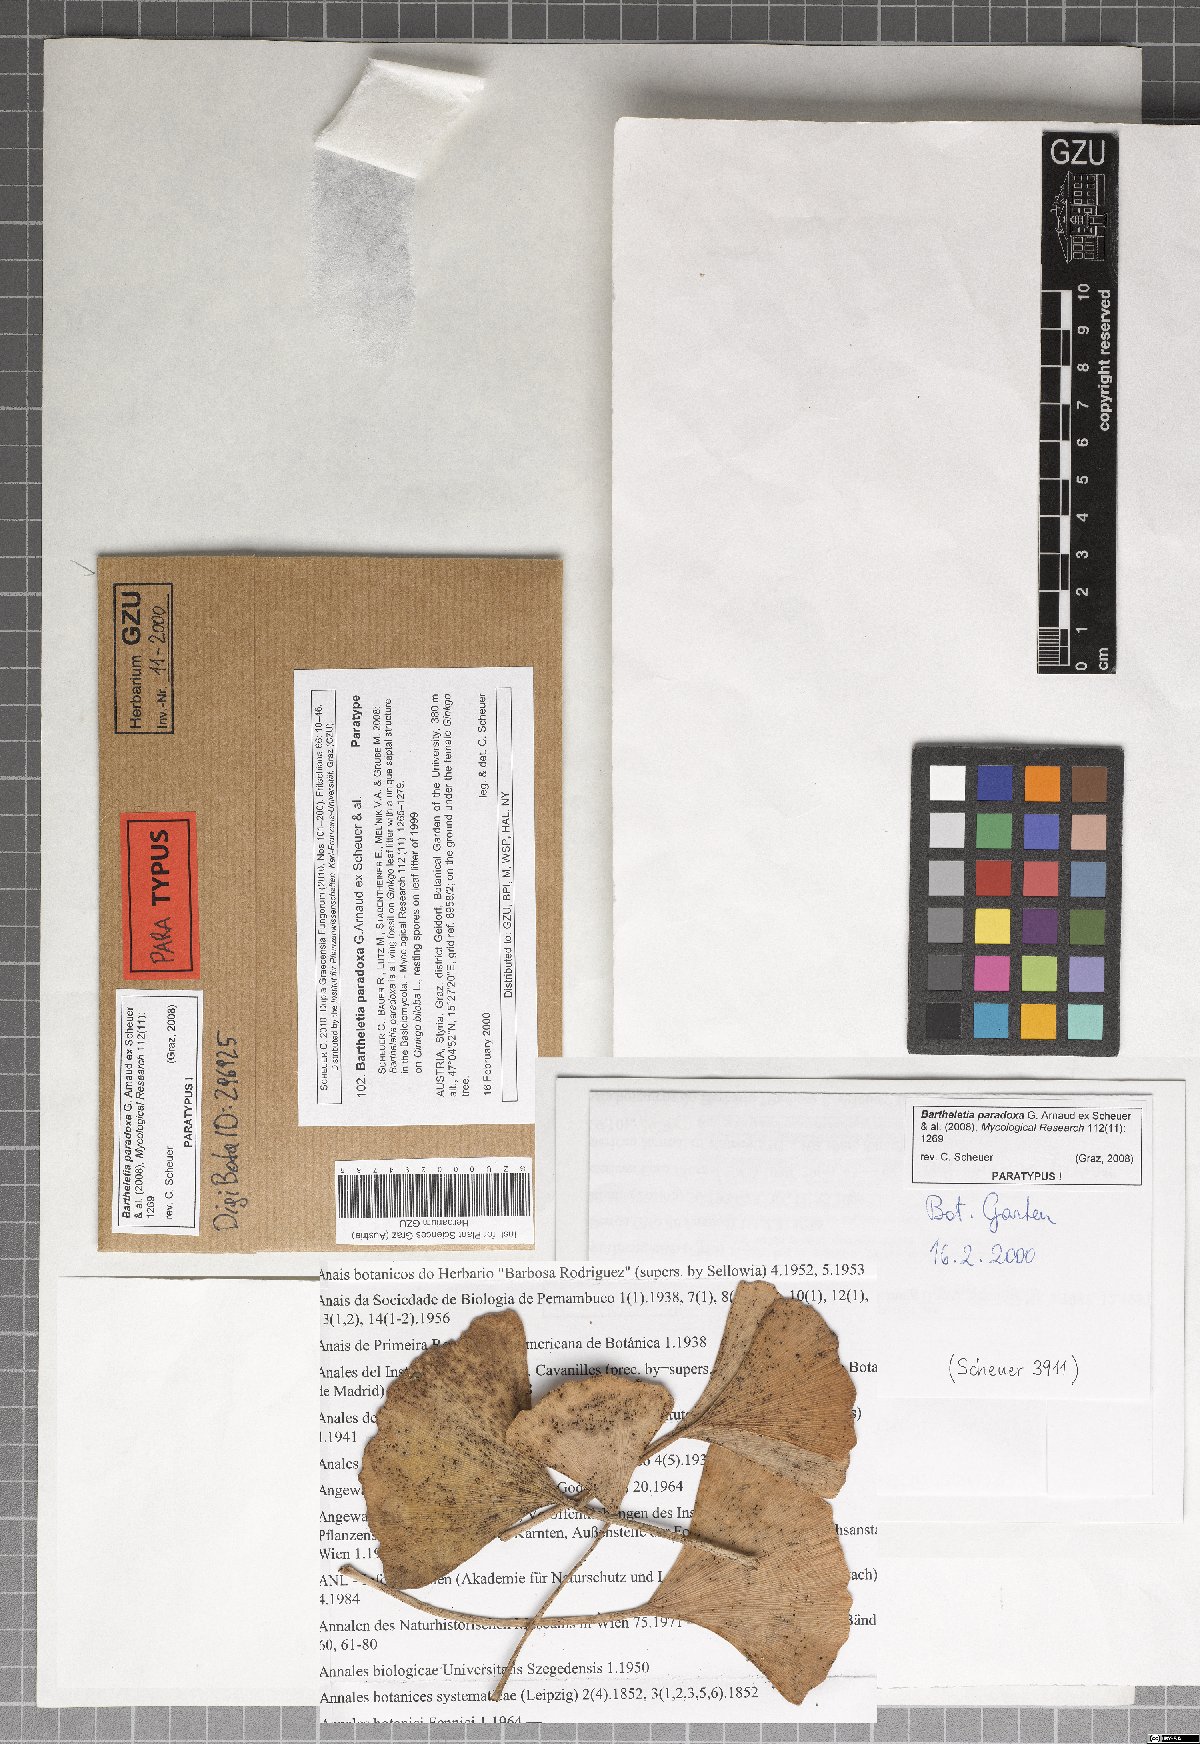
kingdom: Fungi
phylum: Basidiomycota
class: Wallemiomycetes
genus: Bartheletia
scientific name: Bartheletia paradoxa
